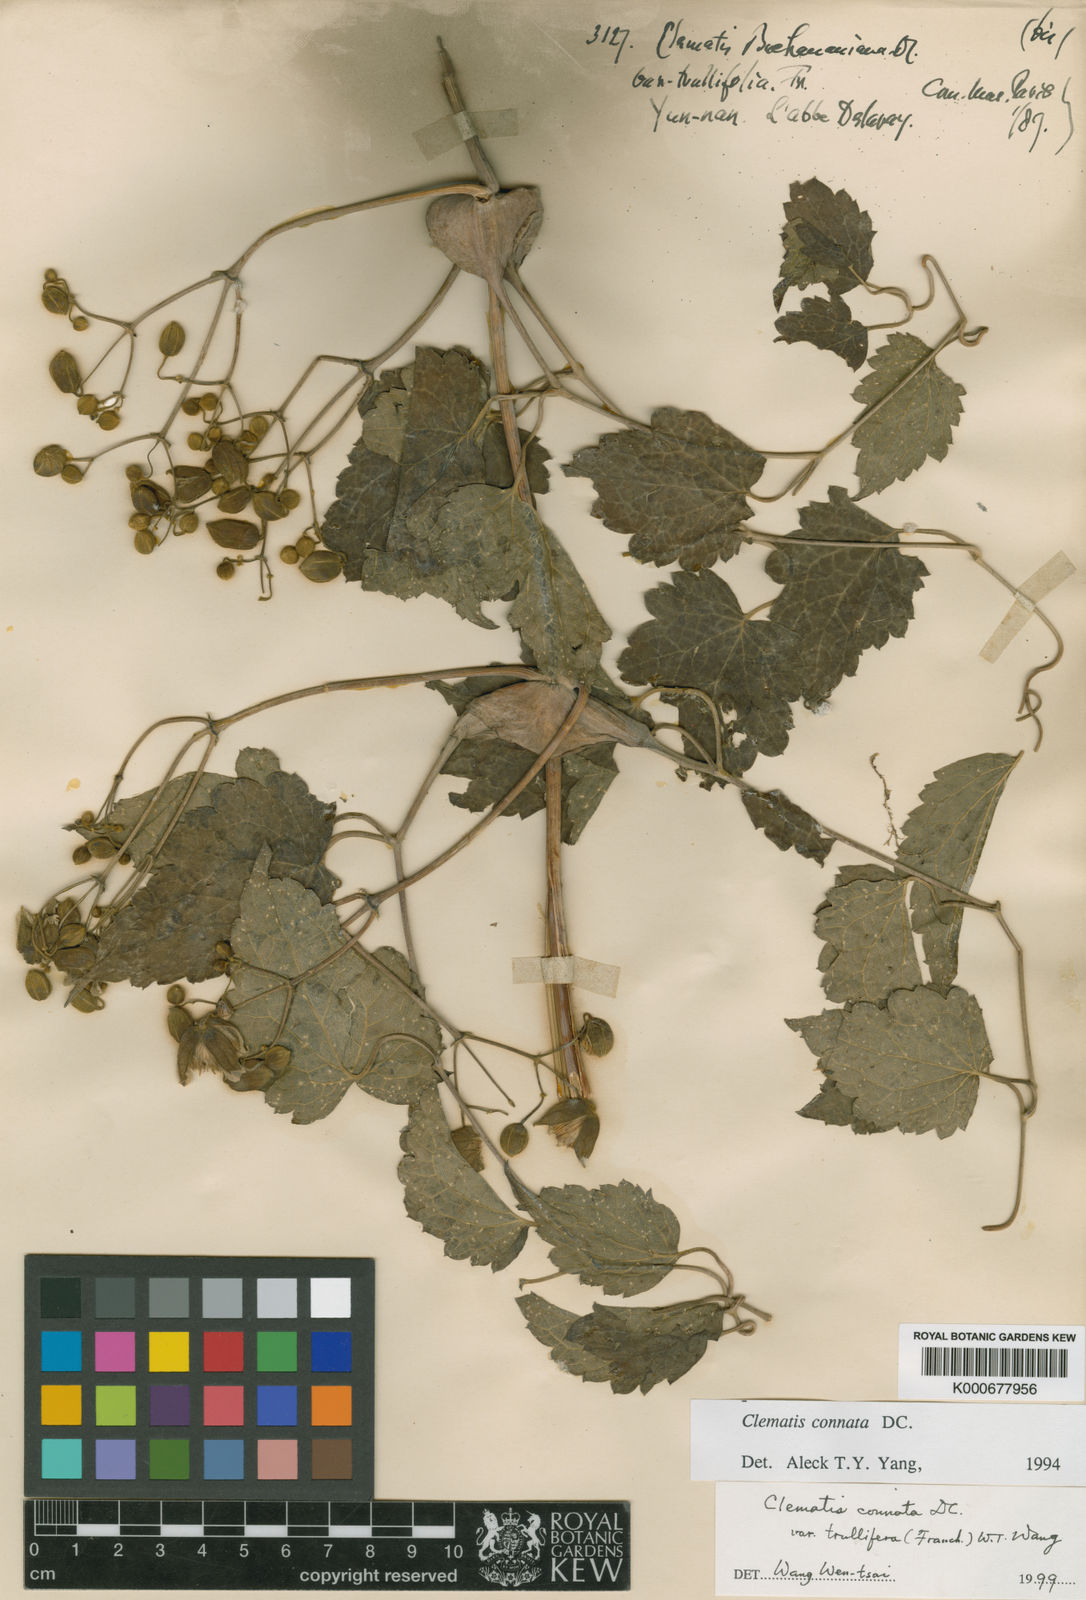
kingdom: Plantae
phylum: Tracheophyta
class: Magnoliopsida
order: Ranunculales
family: Ranunculaceae
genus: Clematis
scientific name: Clematis connata
